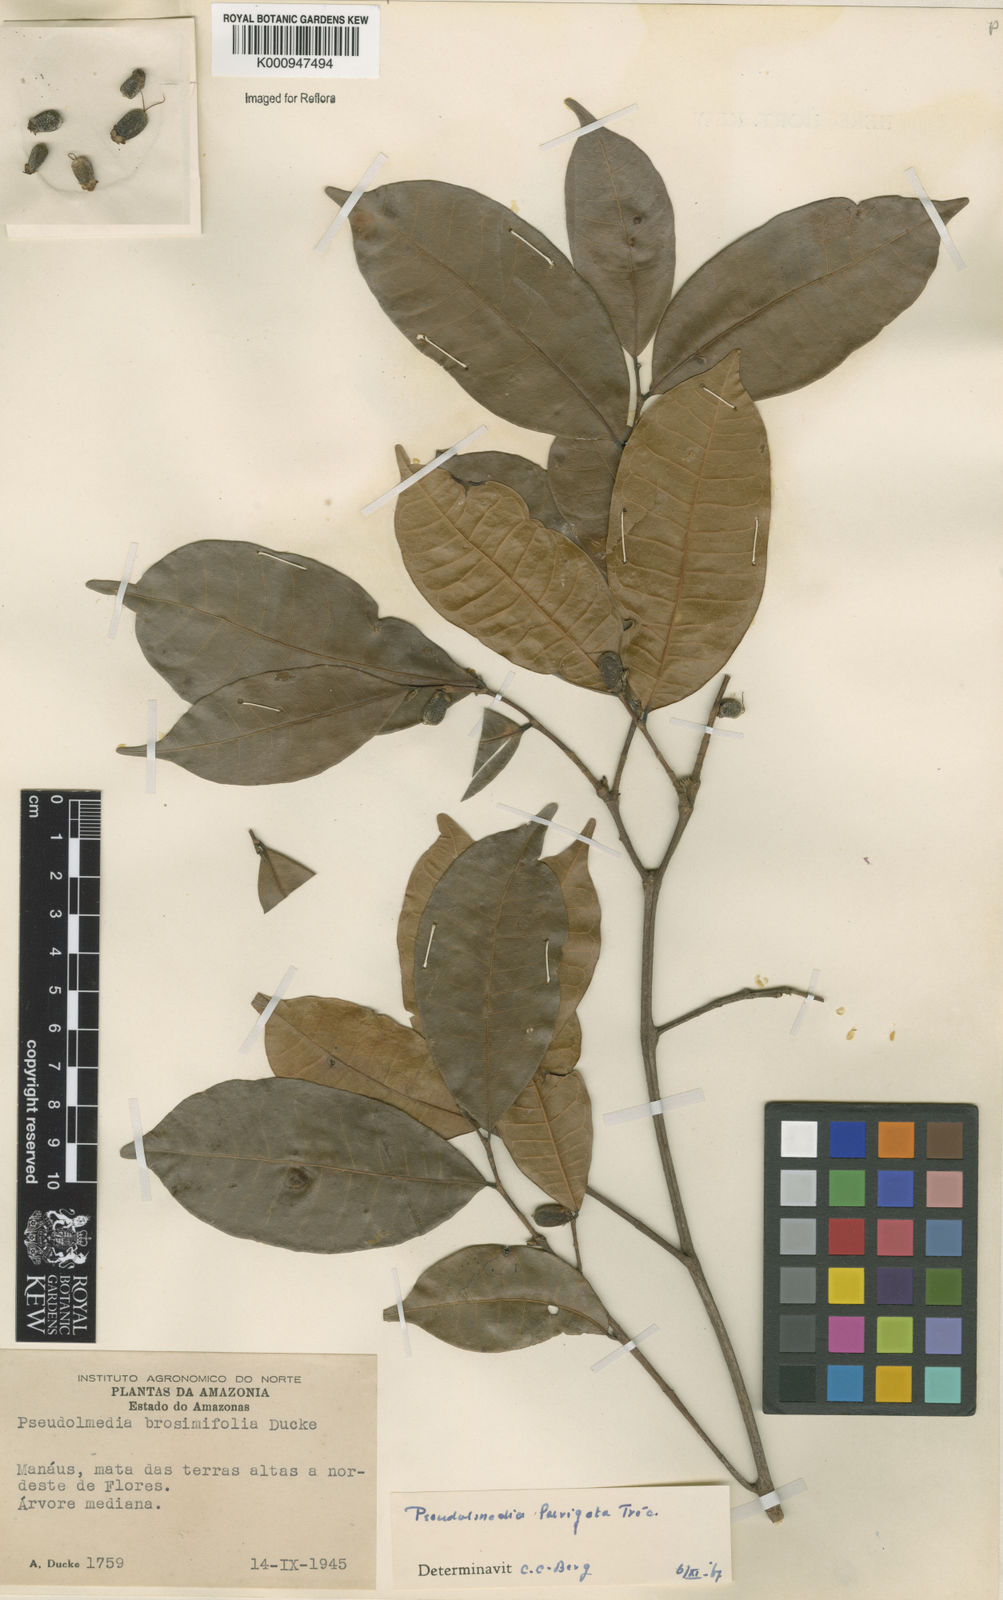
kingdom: Plantae
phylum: Tracheophyta
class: Magnoliopsida
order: Rosales
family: Moraceae
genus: Pseudolmedia
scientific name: Pseudolmedia
